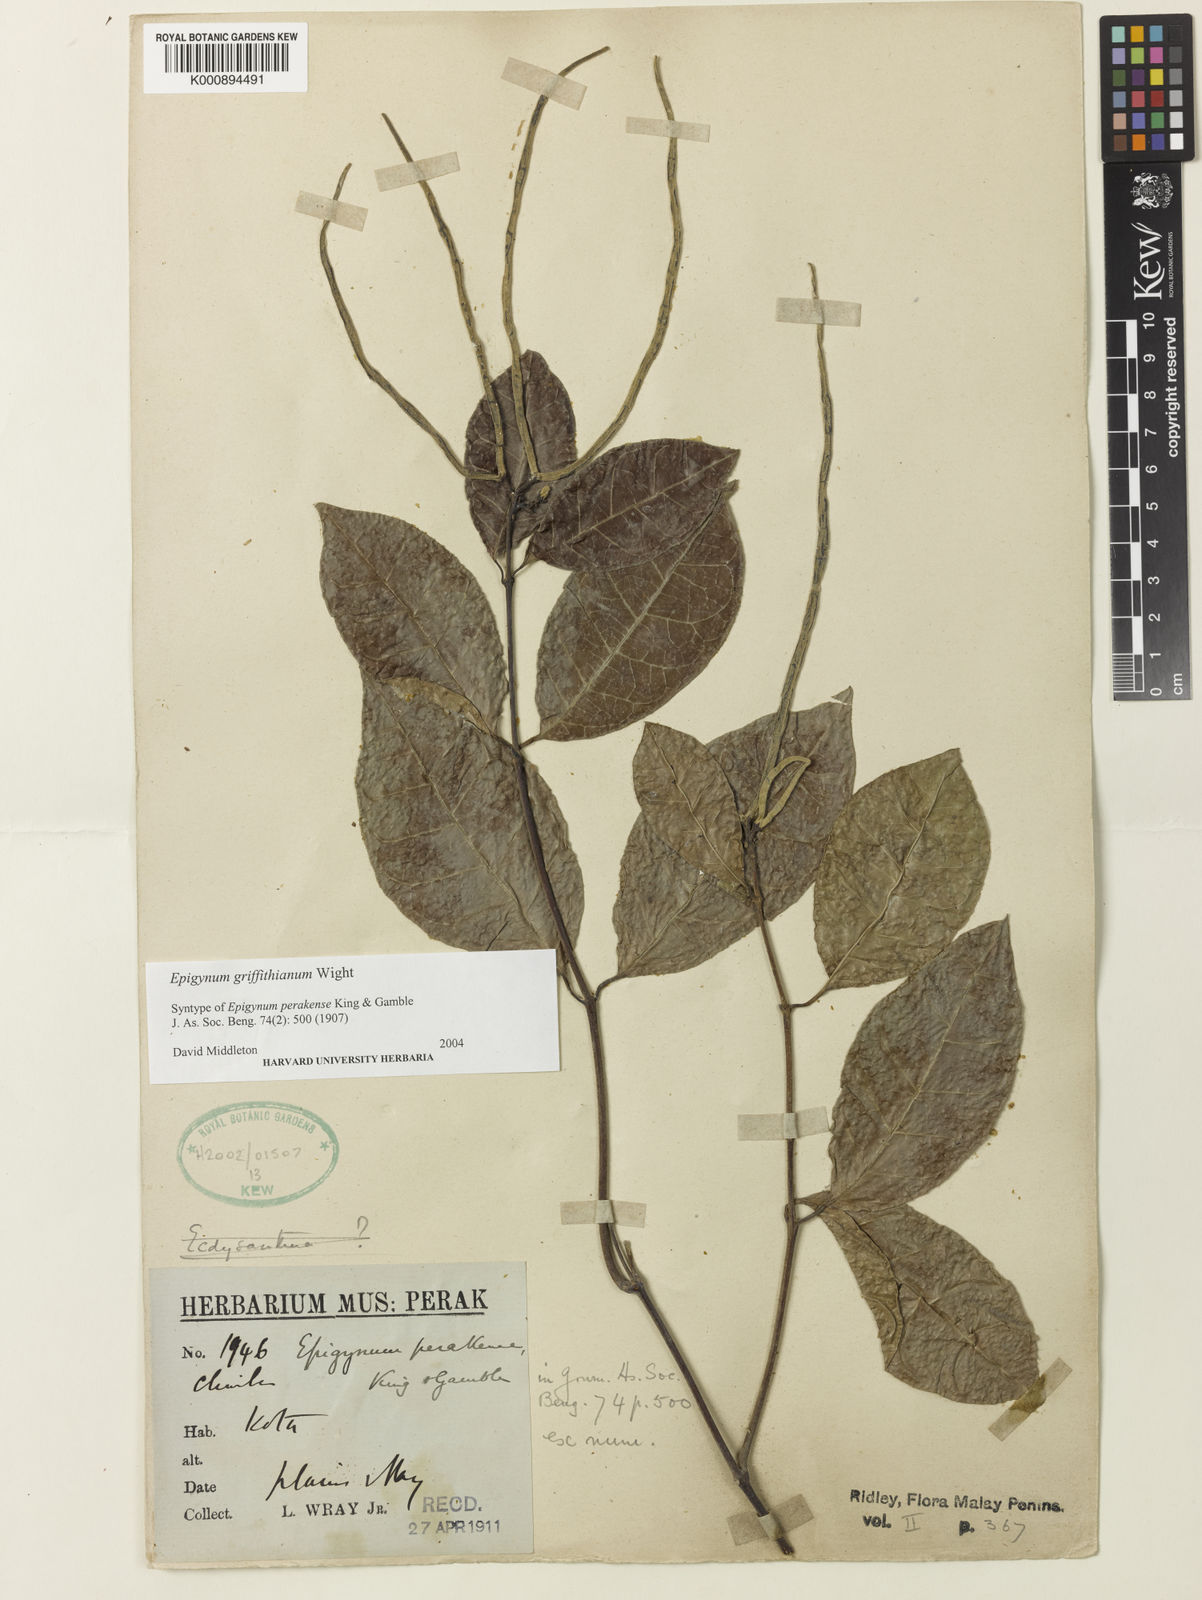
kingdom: Plantae
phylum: Tracheophyta
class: Magnoliopsida
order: Gentianales
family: Apocynaceae
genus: Epigynum
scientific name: Epigynum griffithianum
